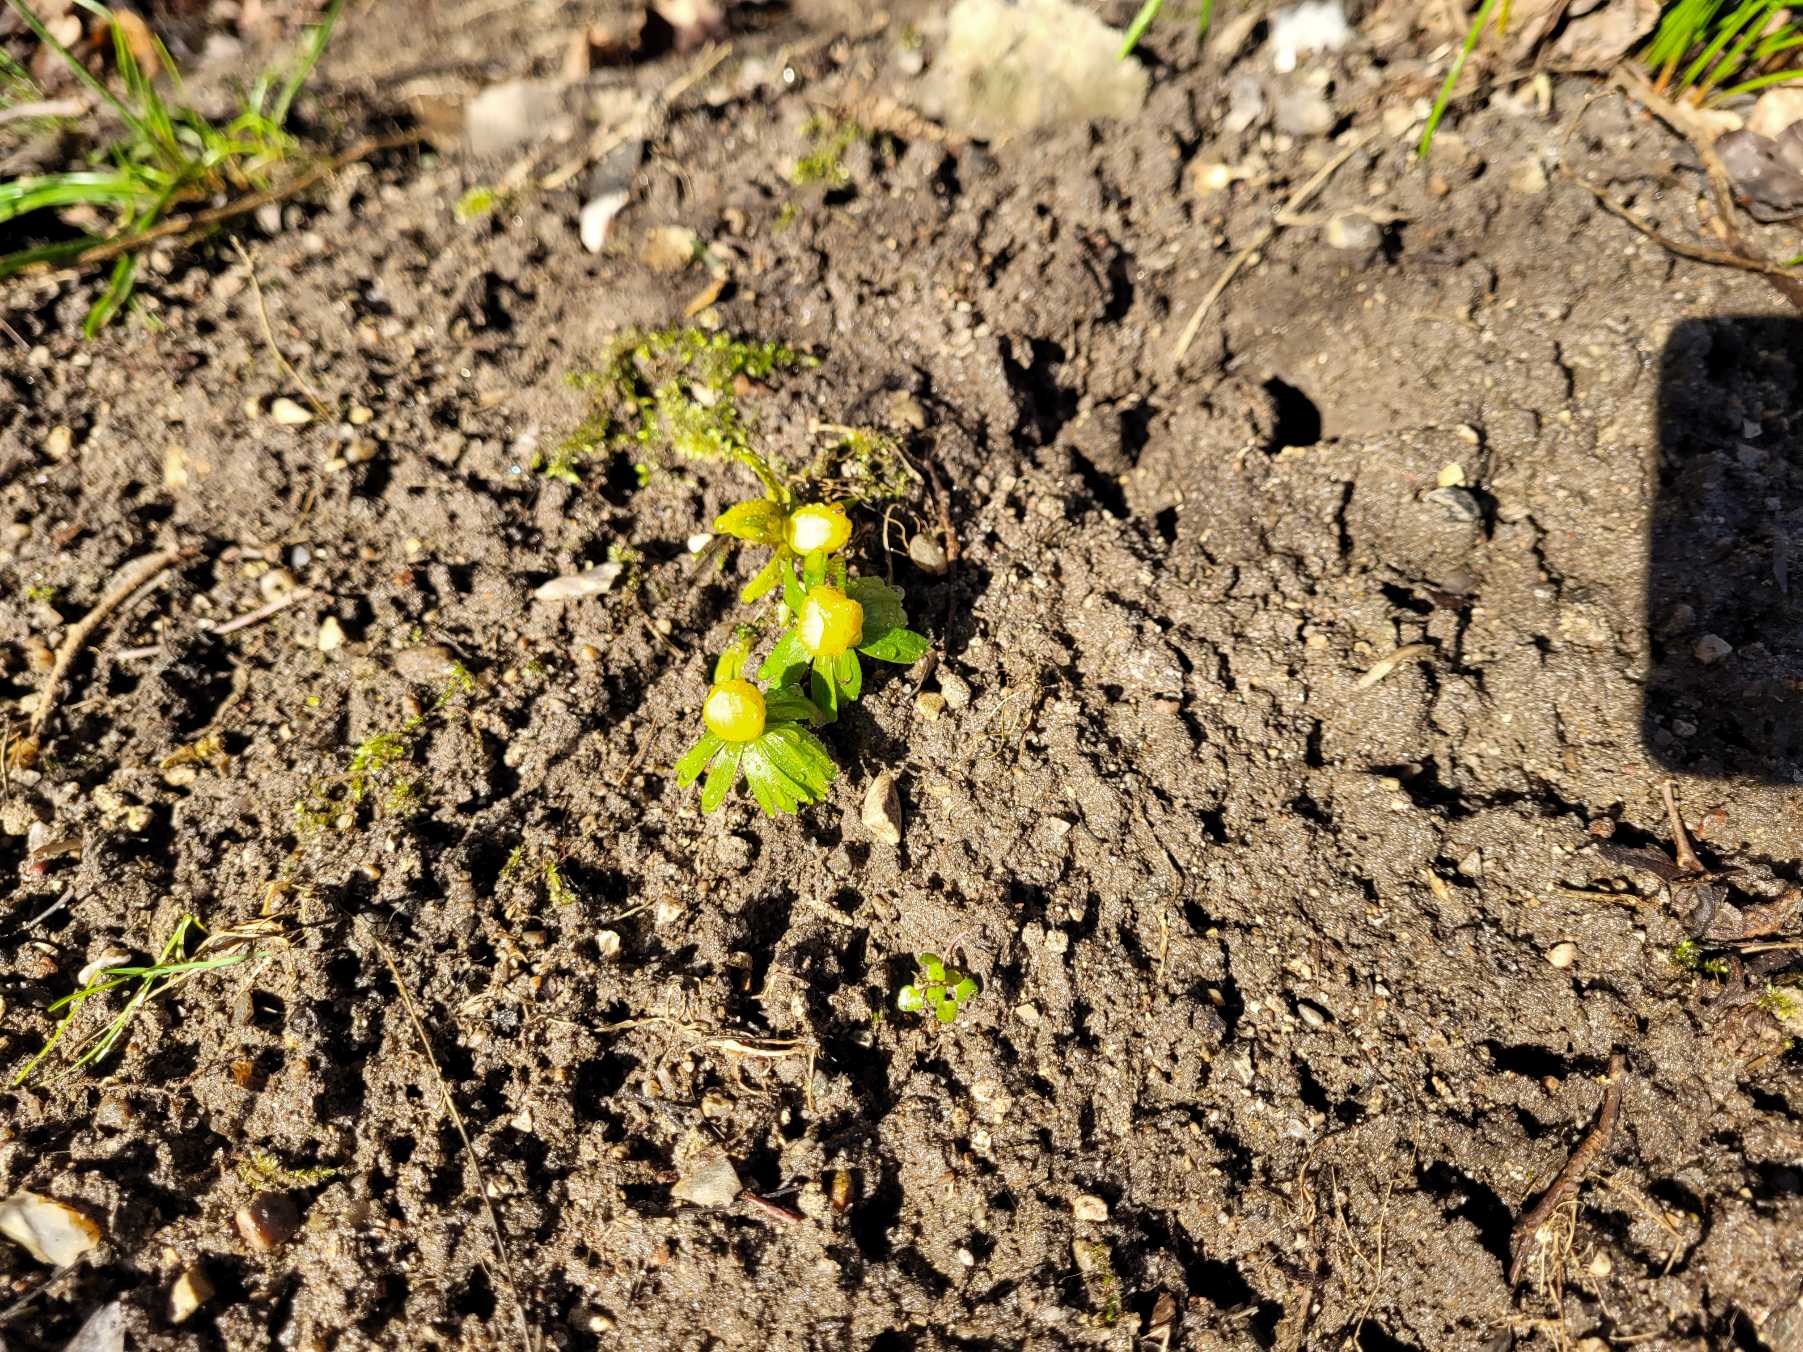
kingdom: Plantae
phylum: Tracheophyta
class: Magnoliopsida
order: Ranunculales
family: Ranunculaceae
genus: Eranthis
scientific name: Eranthis hyemalis
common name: Erantis
